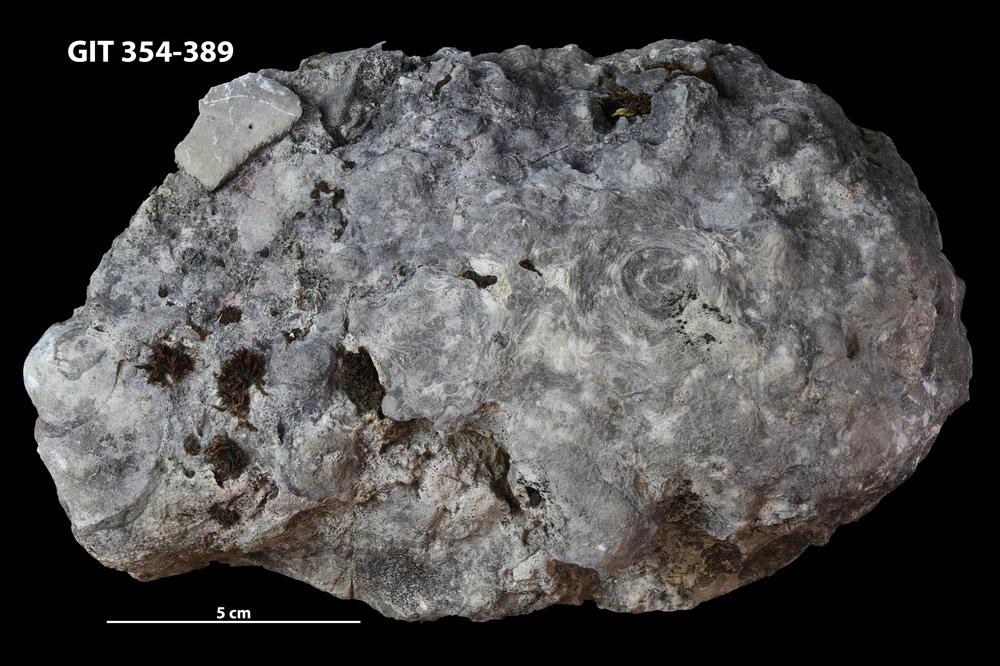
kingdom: Animalia
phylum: Porifera
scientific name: Porifera
